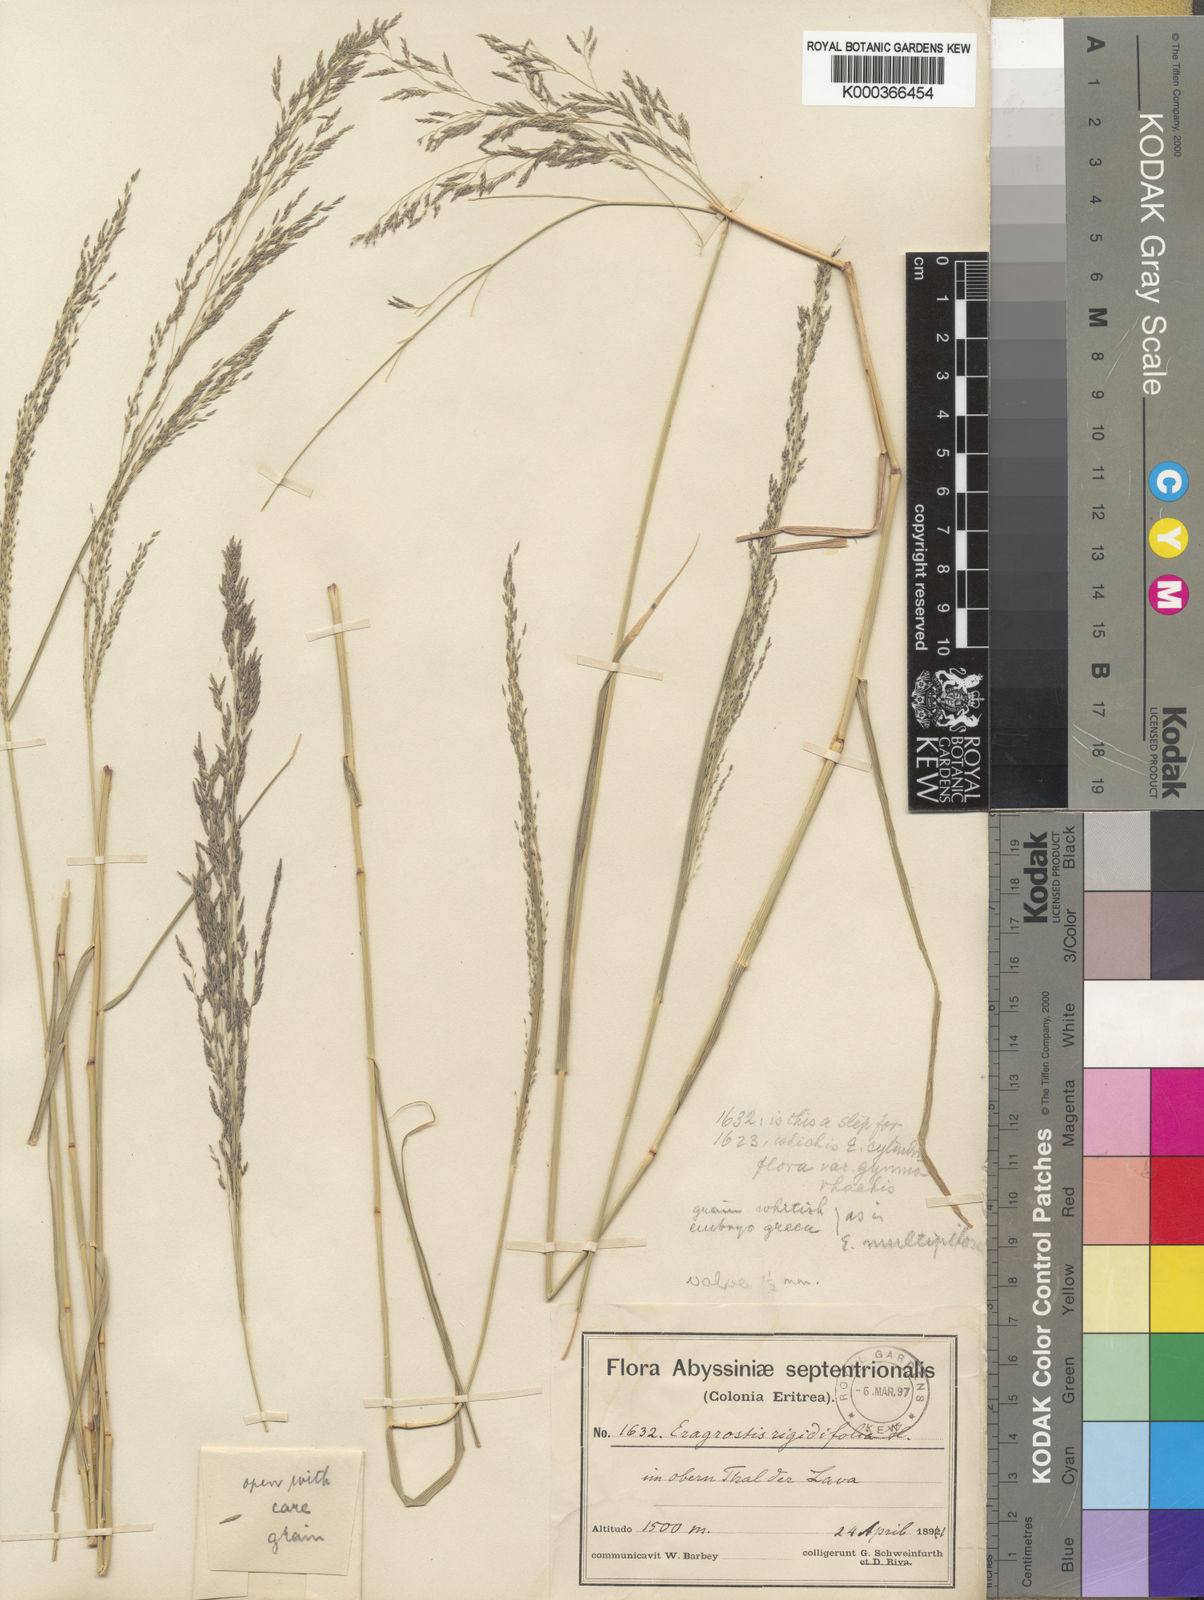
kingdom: Plantae
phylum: Tracheophyta
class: Liliopsida
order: Poales
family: Poaceae
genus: Eragrostis
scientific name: Eragrostis cylindriflora
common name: Cylinderflower lovegrass
